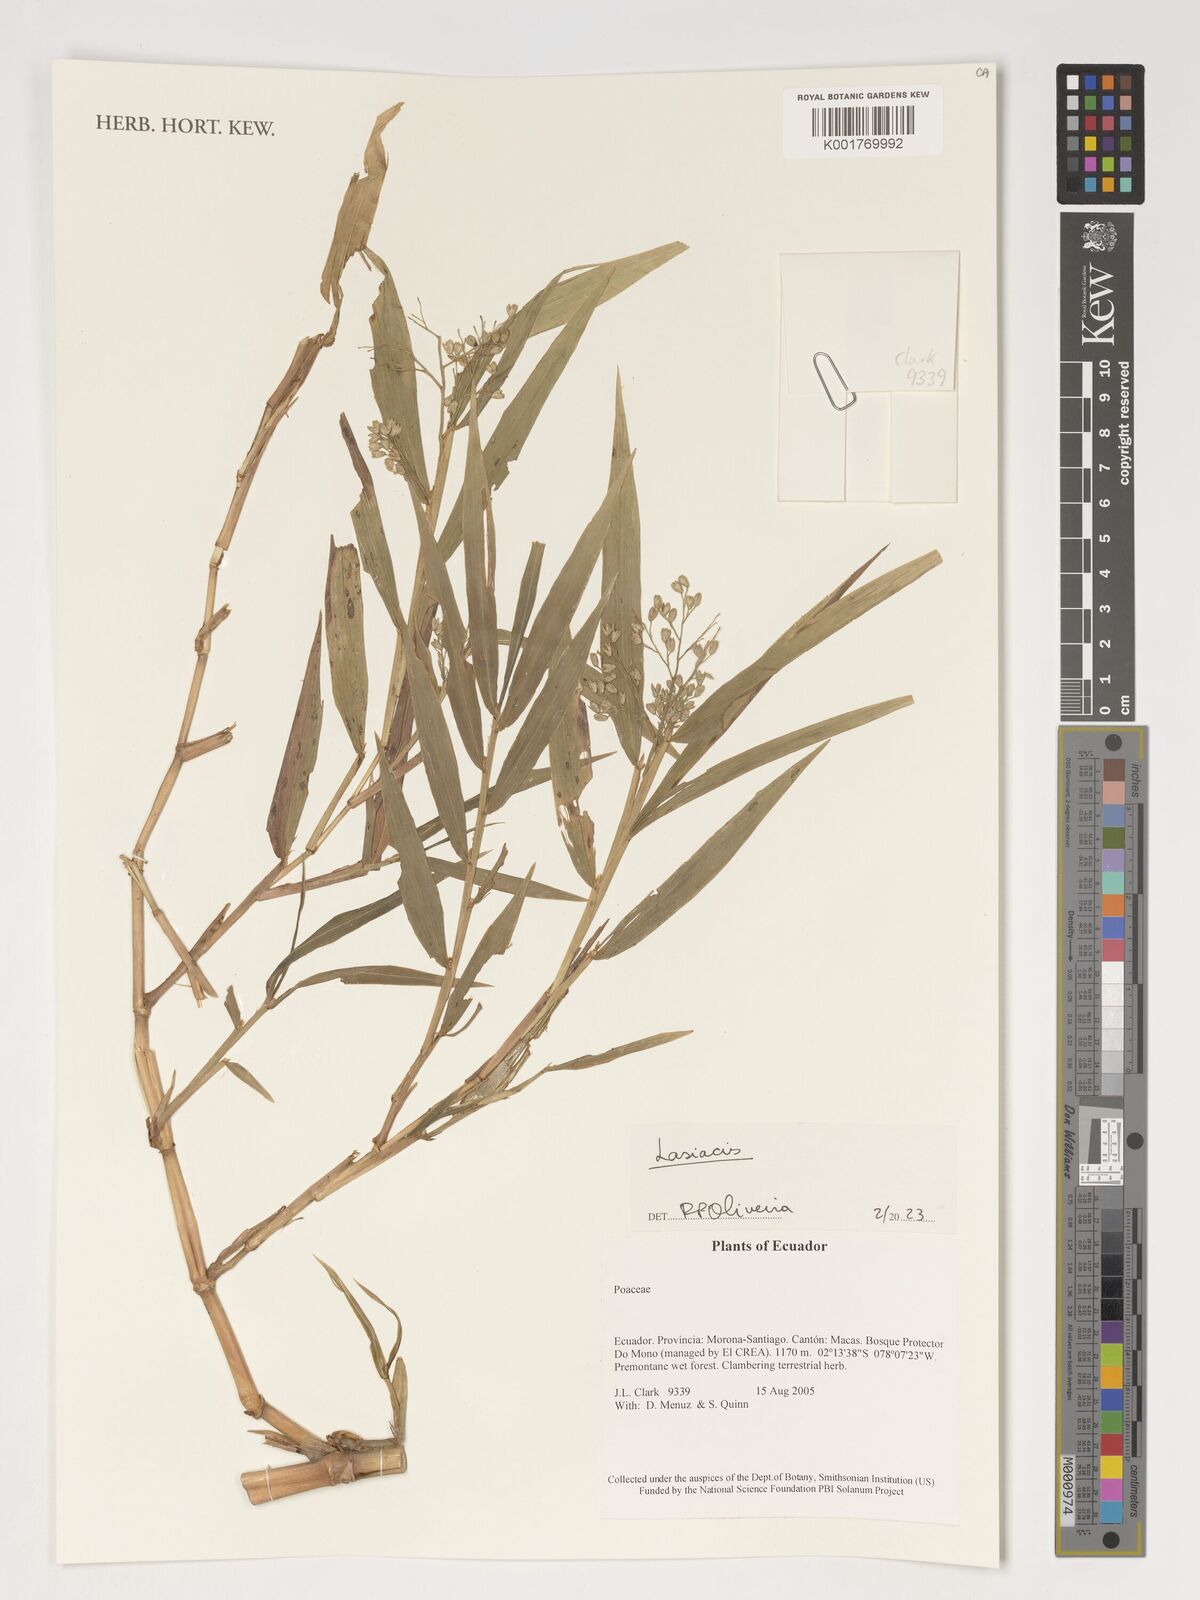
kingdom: Plantae
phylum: Tracheophyta
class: Liliopsida
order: Poales
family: Poaceae
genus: Lasiacis
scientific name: Lasiacis
